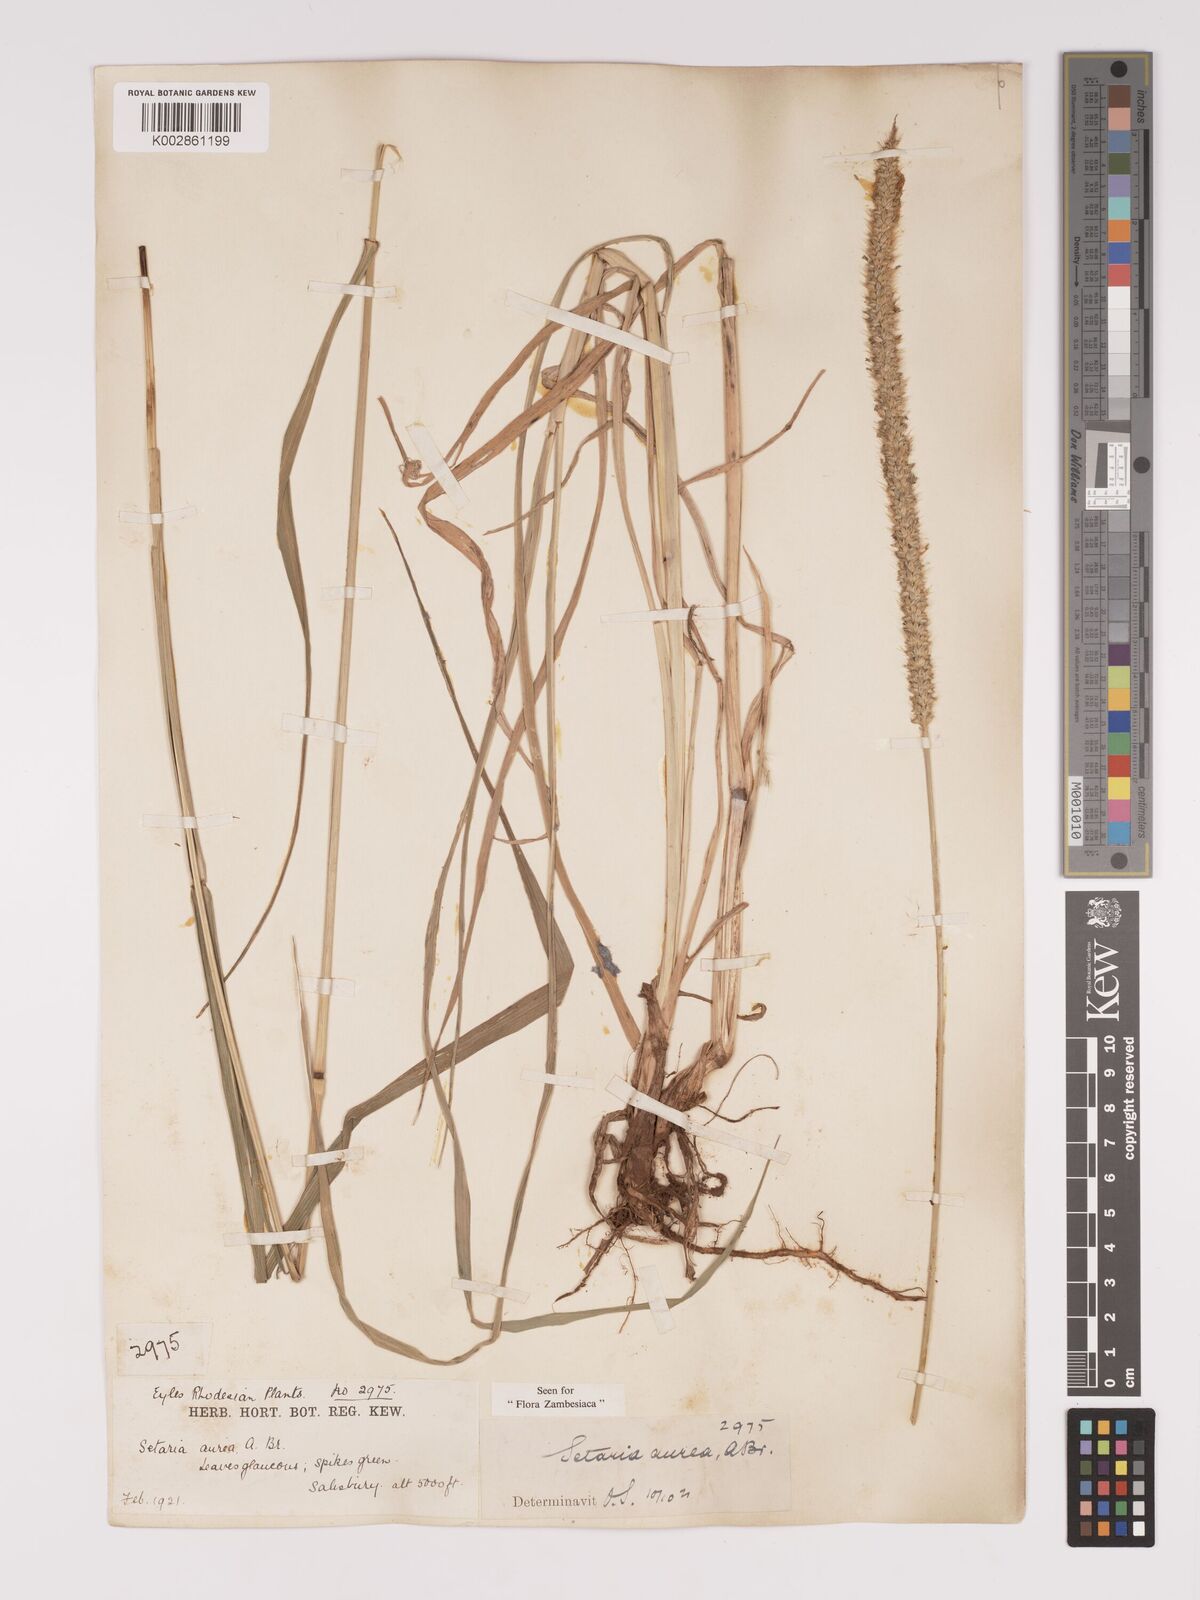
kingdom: Plantae
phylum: Tracheophyta
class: Liliopsida
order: Poales
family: Poaceae
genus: Setaria
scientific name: Setaria sphacelata
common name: African bristlegrass
